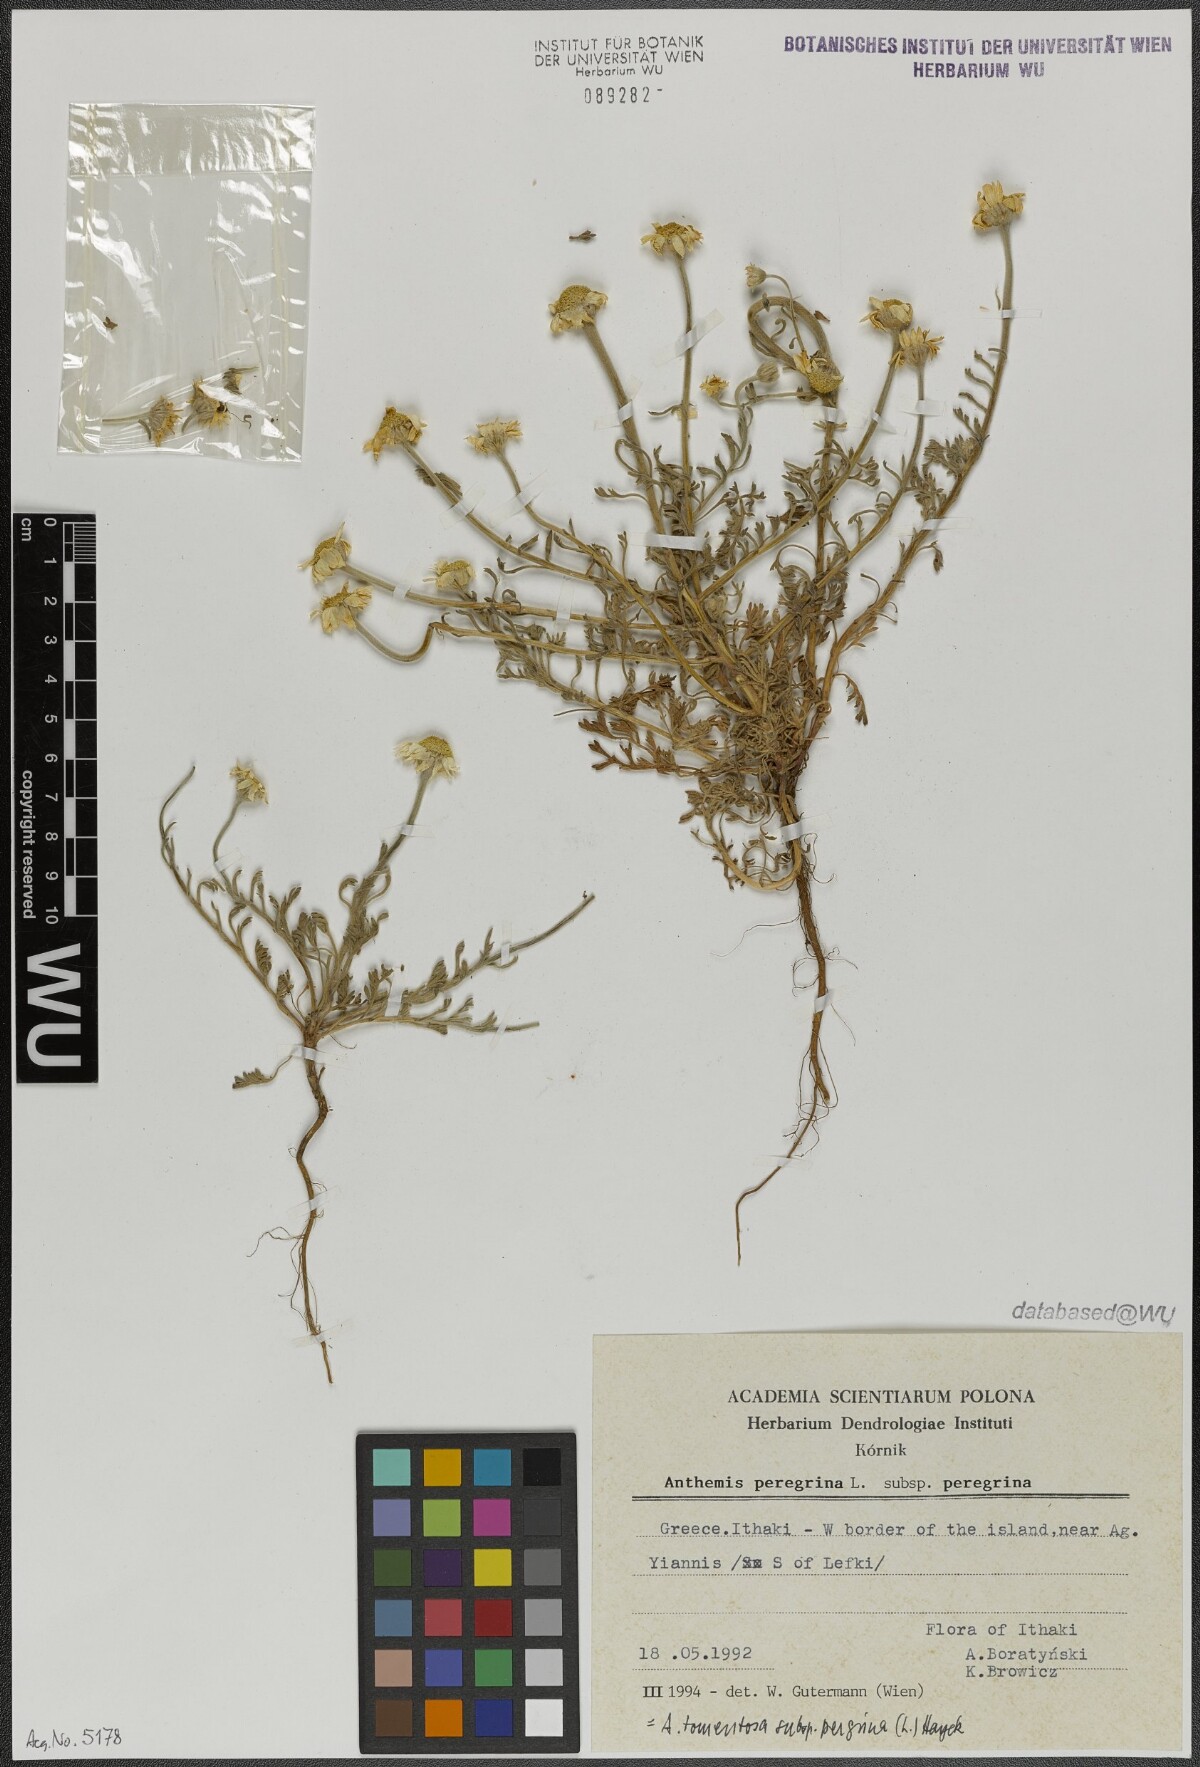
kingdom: Plantae
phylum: Tracheophyta
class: Magnoliopsida
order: Asterales
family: Asteraceae
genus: Anthemis
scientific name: Anthemis tomentosa
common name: Woolly chamomile
